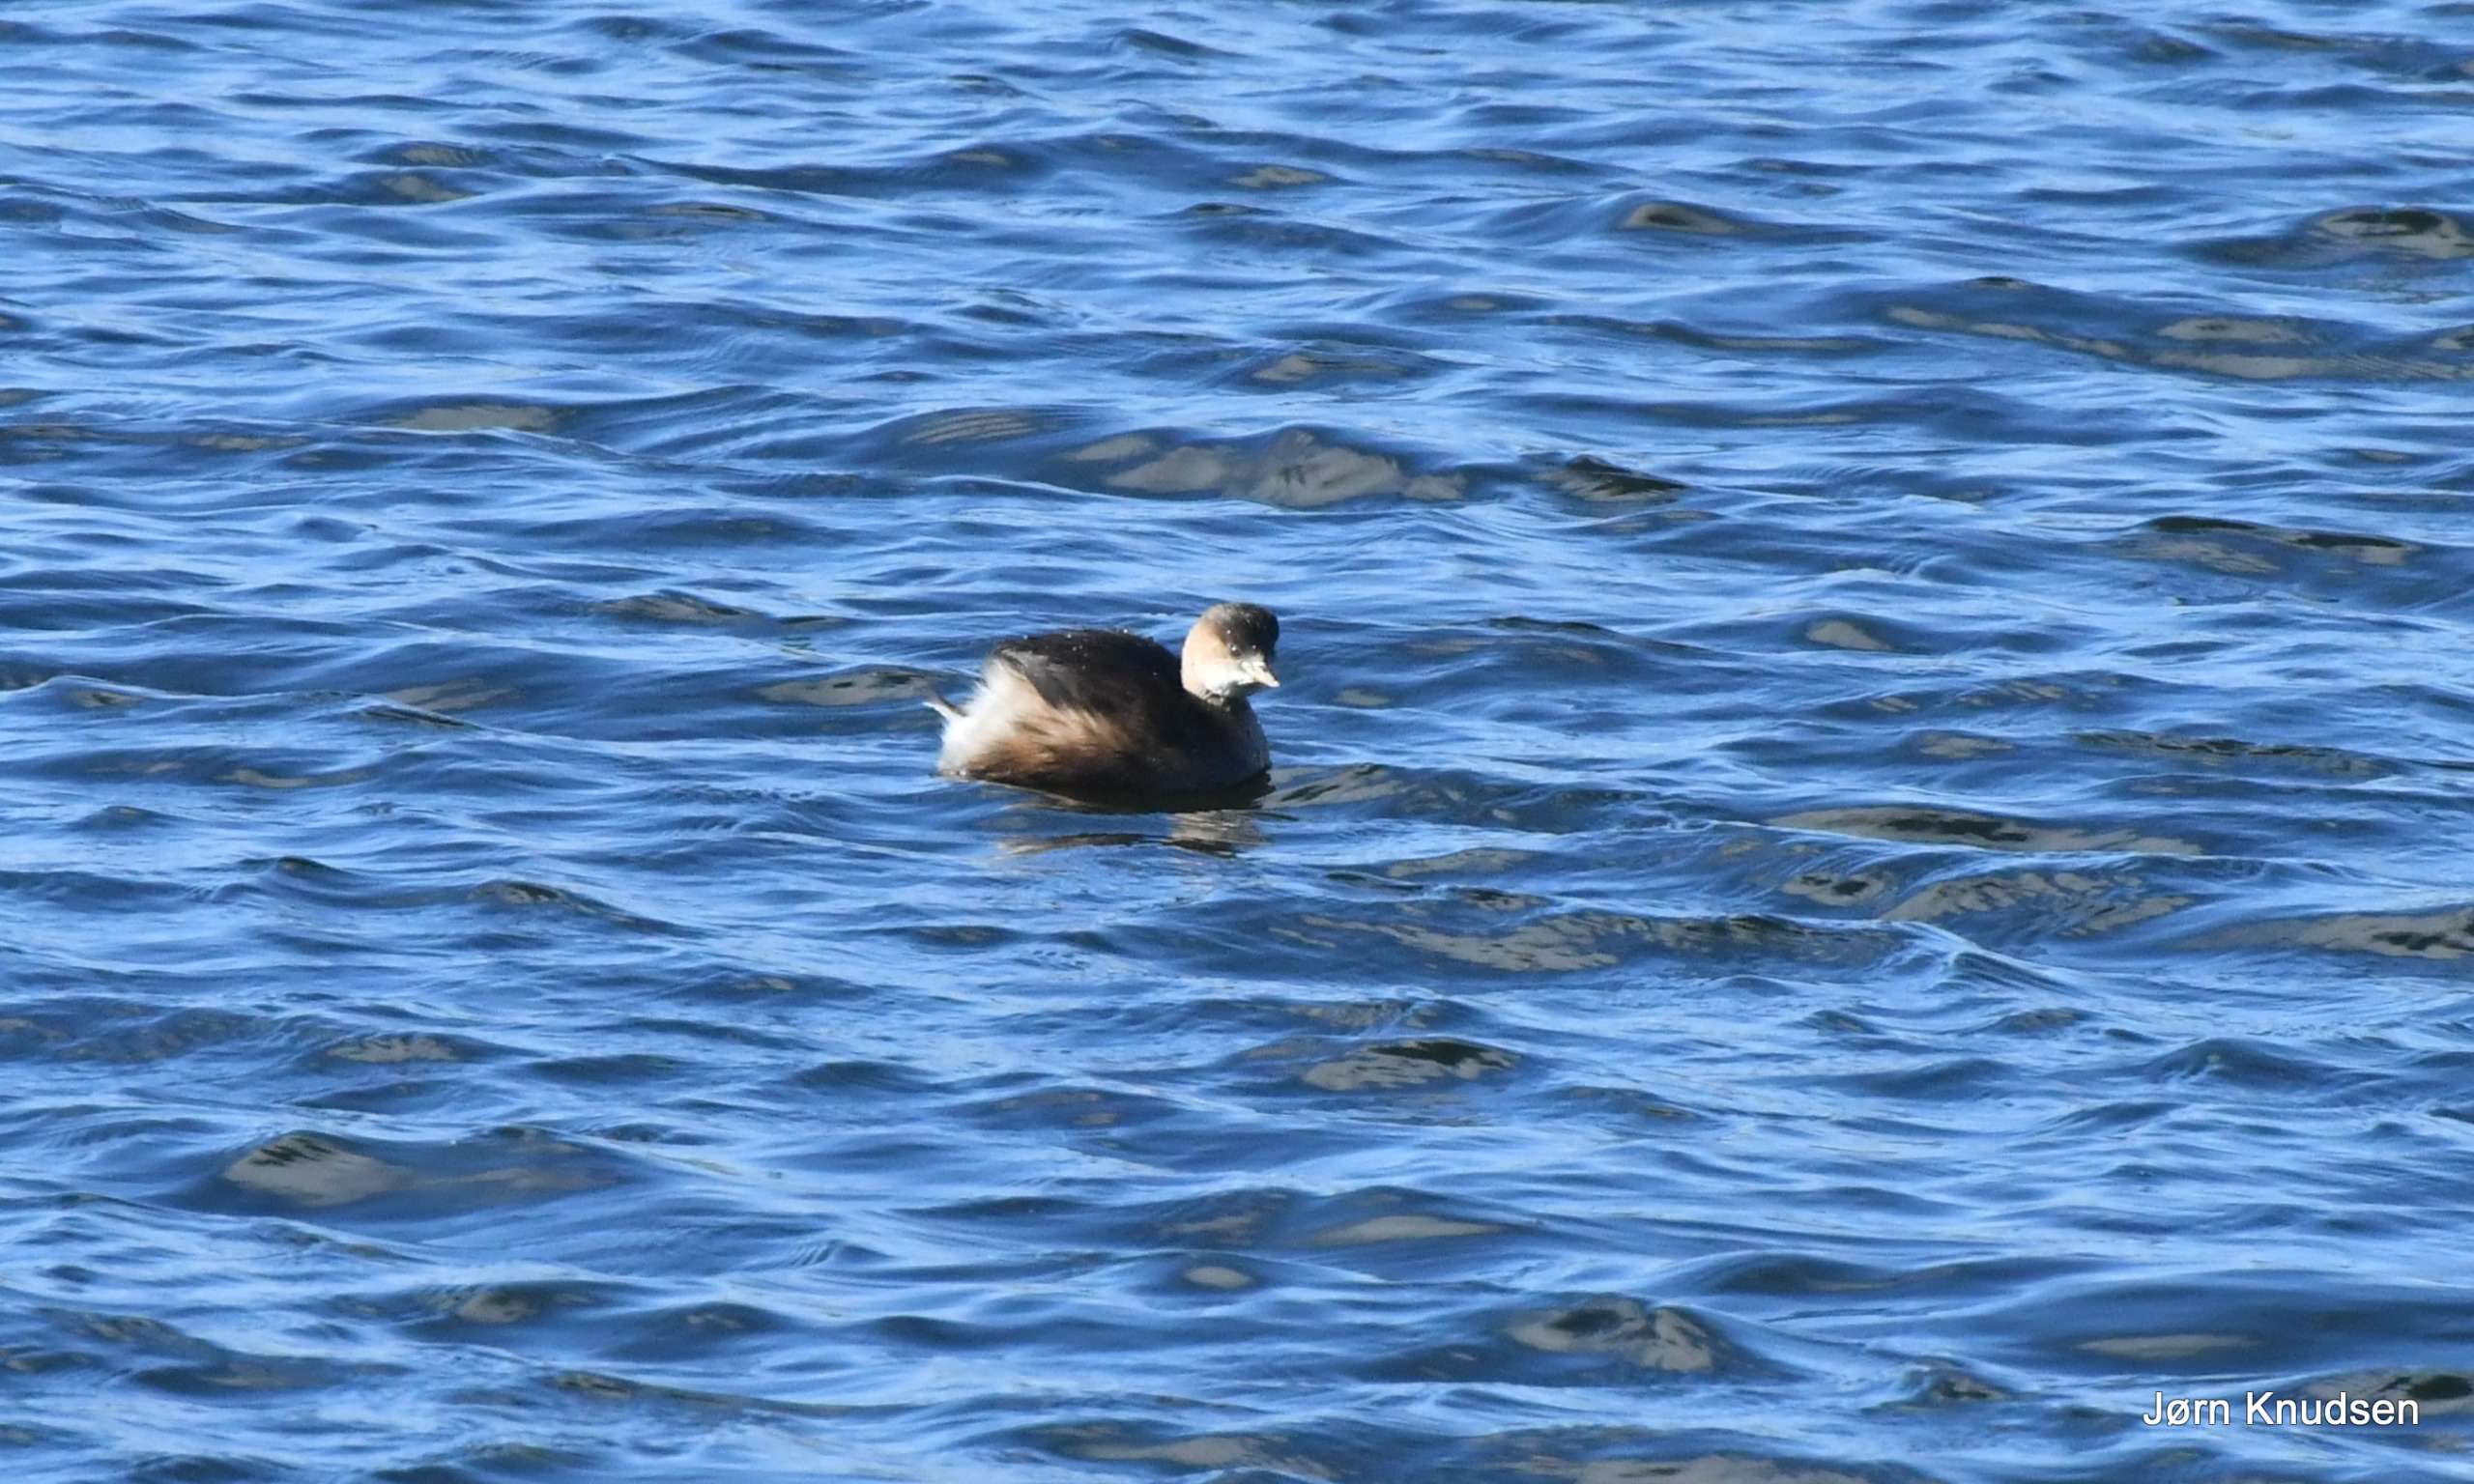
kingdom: Animalia
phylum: Chordata
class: Aves
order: Podicipediformes
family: Podicipedidae
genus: Tachybaptus
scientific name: Tachybaptus ruficollis
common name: Lille lappedykker
